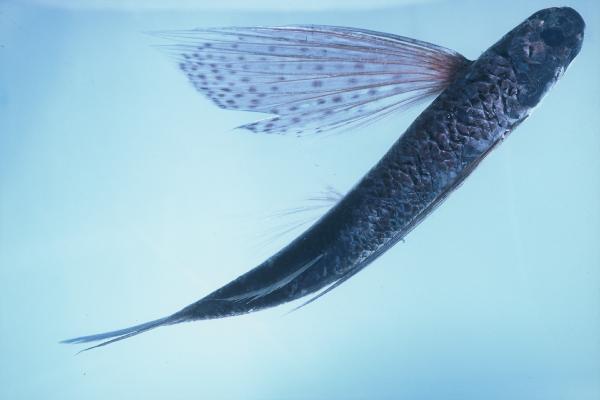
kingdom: Animalia
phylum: Chordata
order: Beloniformes
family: Exocoetidae
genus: Cypselurus
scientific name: Cypselurus poecilopterus
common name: Yellow-wing flyingfish
